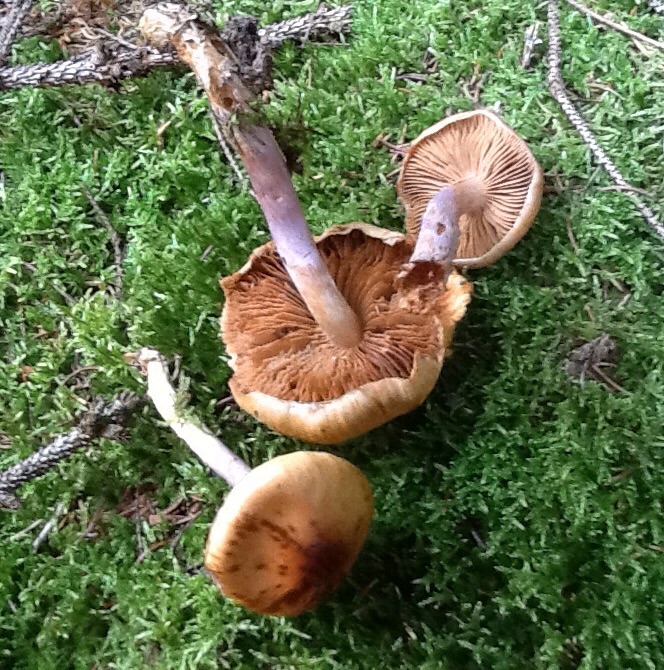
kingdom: Fungi
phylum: Basidiomycota
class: Agaricomycetes
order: Agaricales
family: Cortinariaceae
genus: Cortinarius
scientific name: Cortinarius collinitus
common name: spættet slørhat
